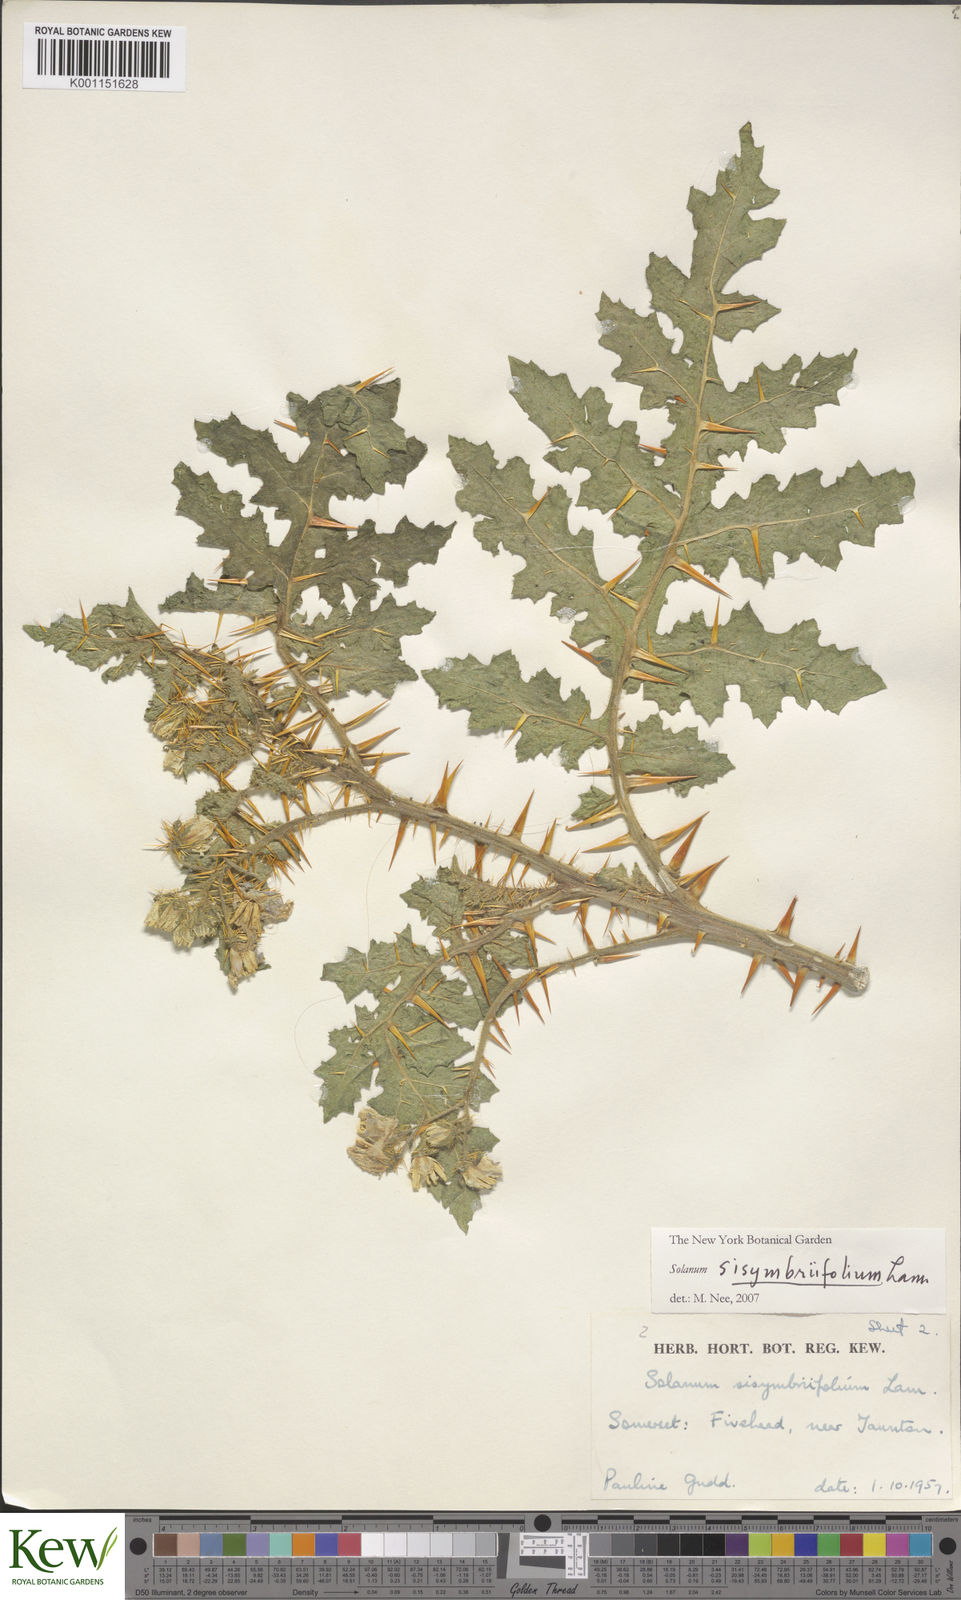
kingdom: Plantae
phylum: Tracheophyta
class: Magnoliopsida
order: Solanales
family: Solanaceae
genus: Solanum
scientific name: Solanum sisymbriifolium
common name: Red buffalo-bur
